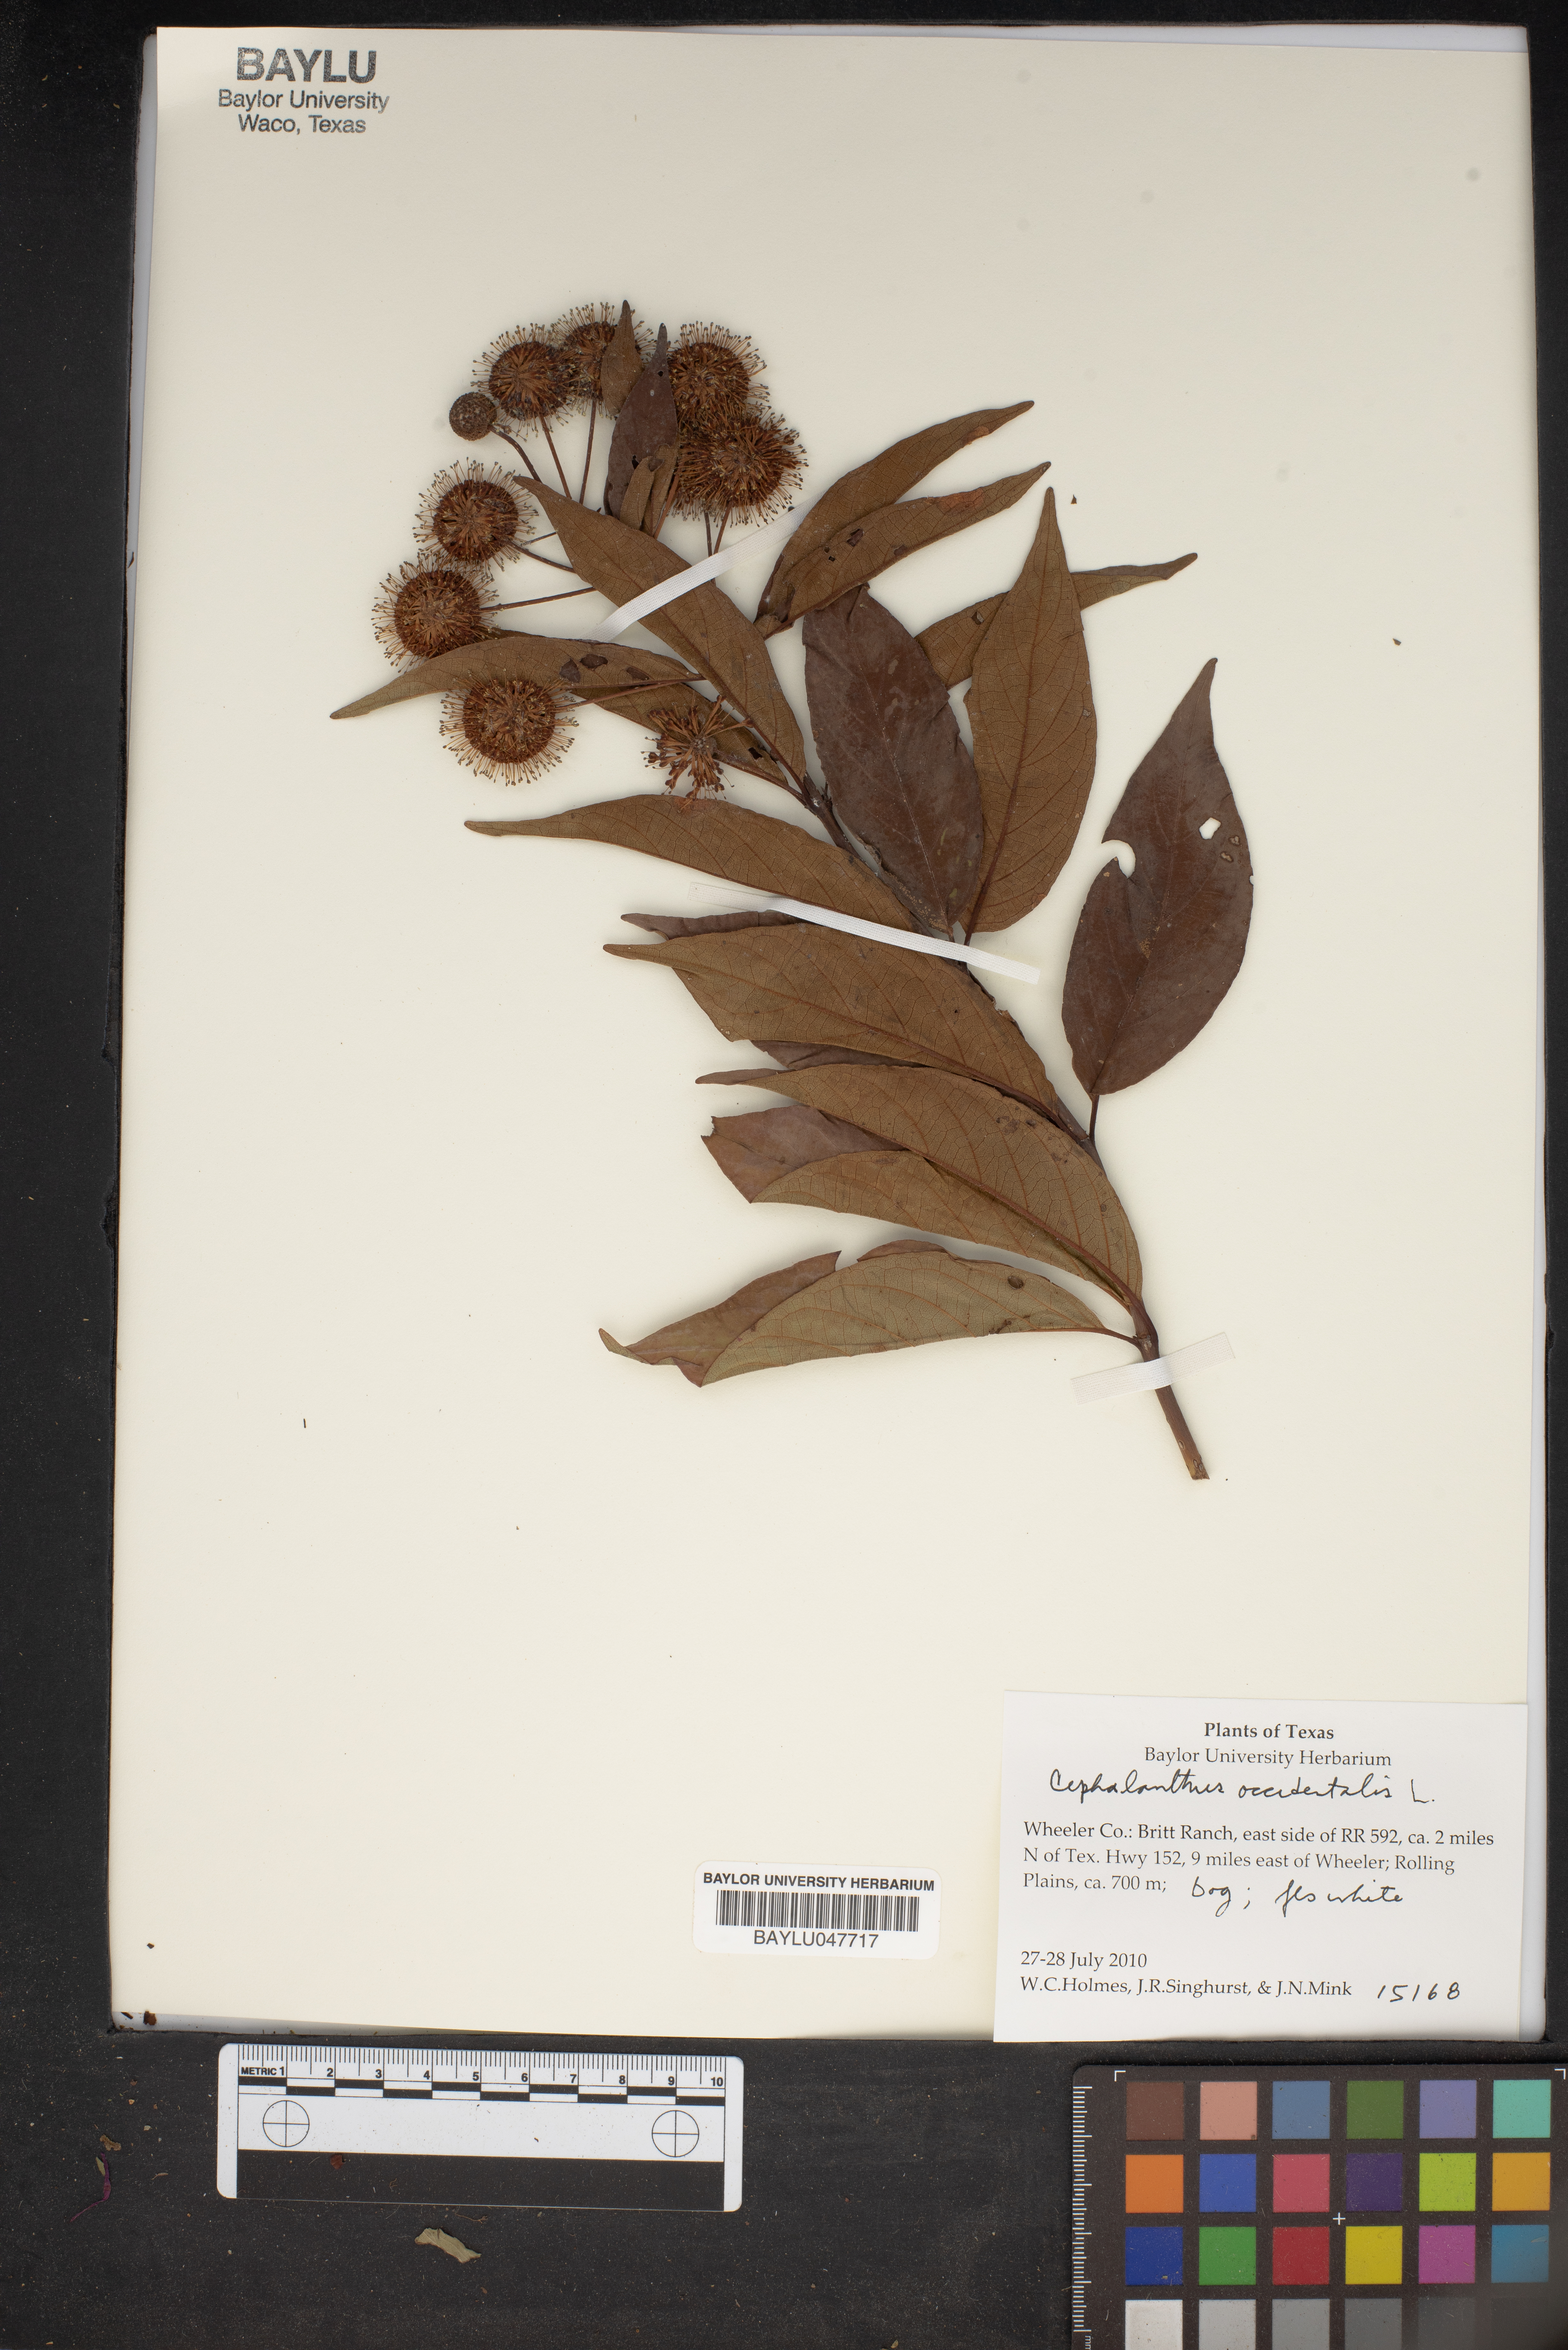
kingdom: Plantae
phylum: Tracheophyta
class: Magnoliopsida
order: Gentianales
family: Rubiaceae
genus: Cephalanthus
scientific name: Cephalanthus occidentalis
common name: Button-willow
